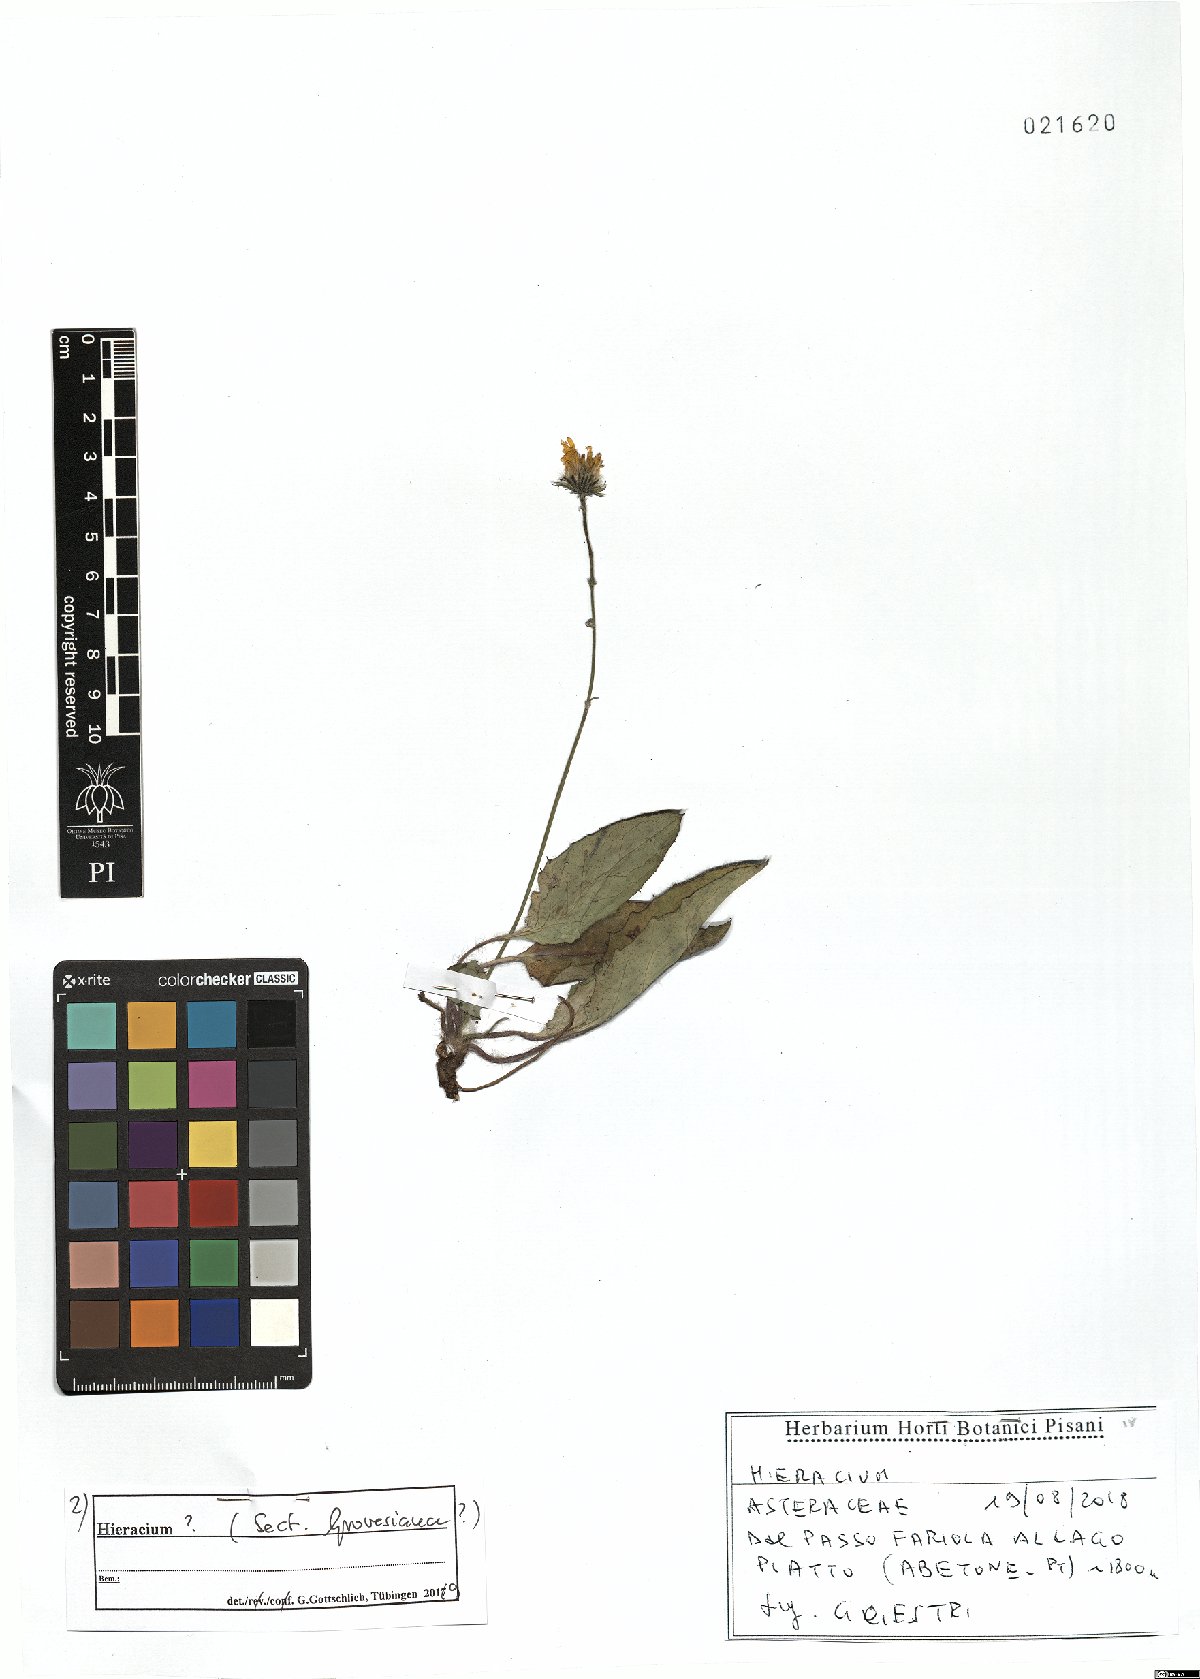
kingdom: Plantae
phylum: Tracheophyta
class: Magnoliopsida
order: Asterales
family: Asteraceae
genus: Hieracium
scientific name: Hieracium grovesianum
